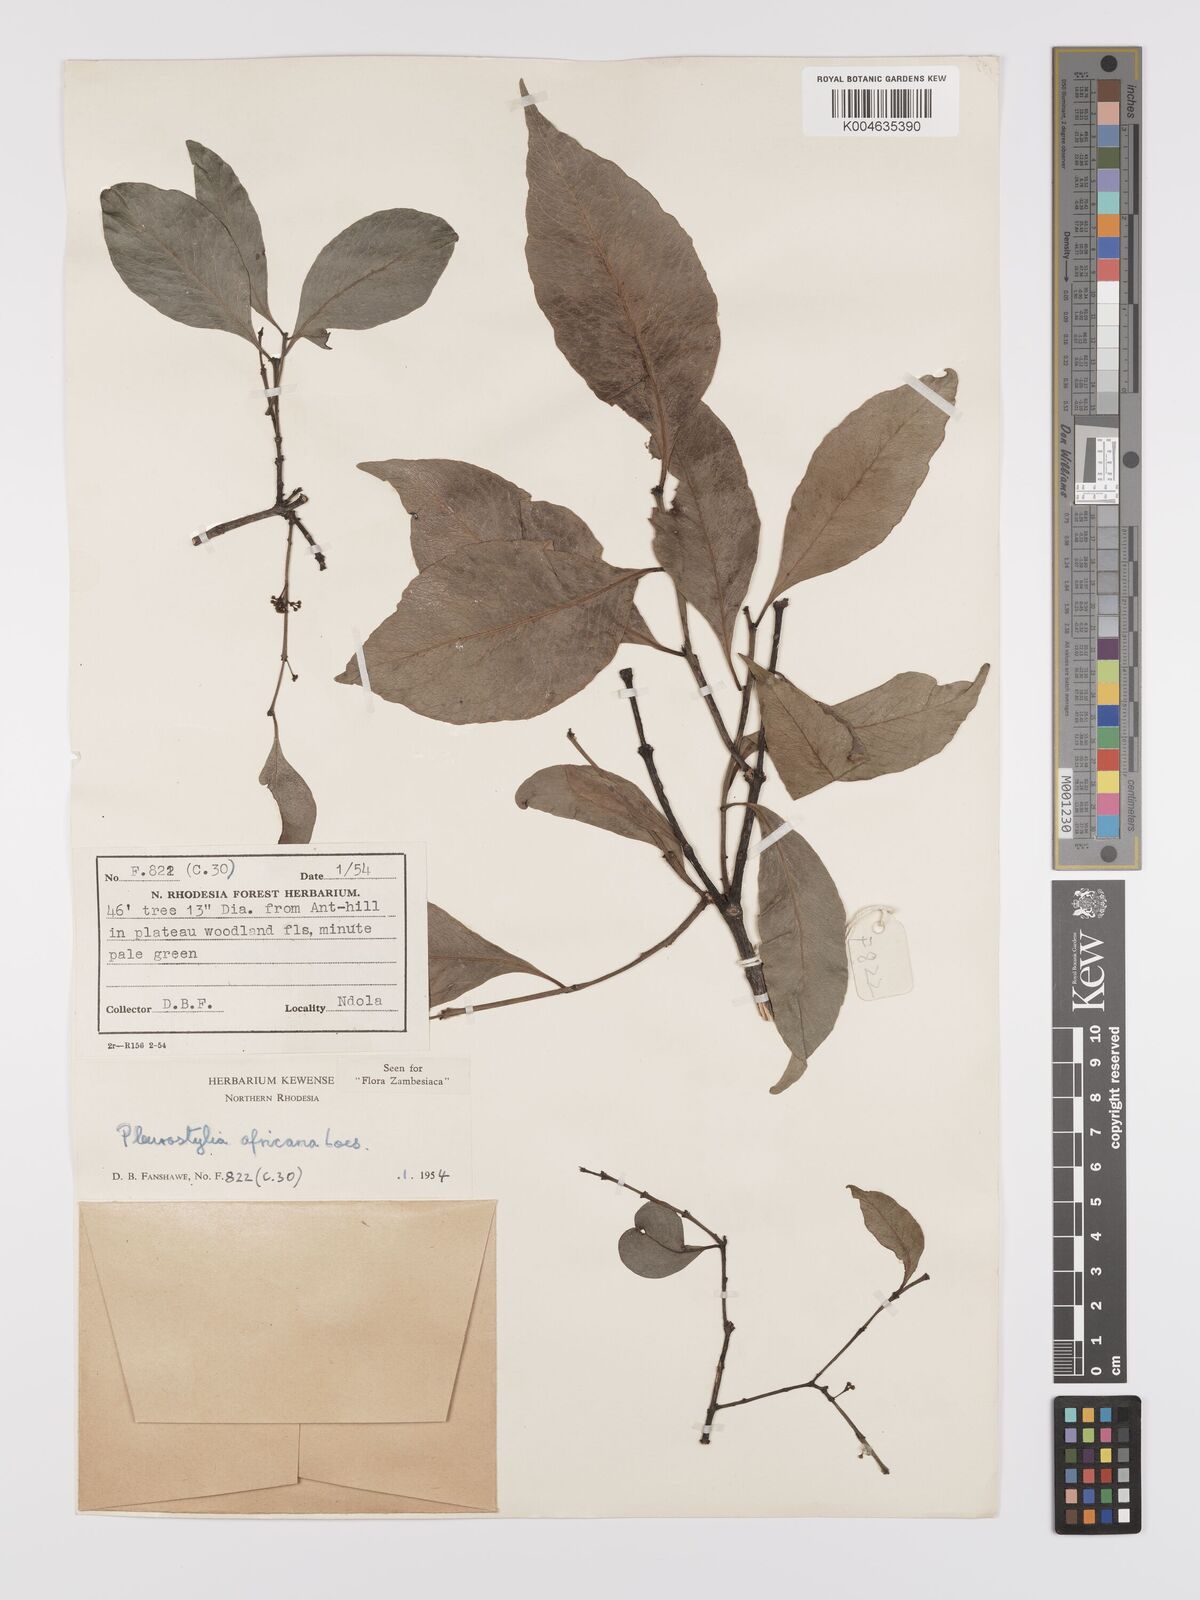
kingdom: Plantae
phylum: Tracheophyta
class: Magnoliopsida
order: Celastrales
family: Celastraceae
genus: Pleurostylia
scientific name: Pleurostylia africana
